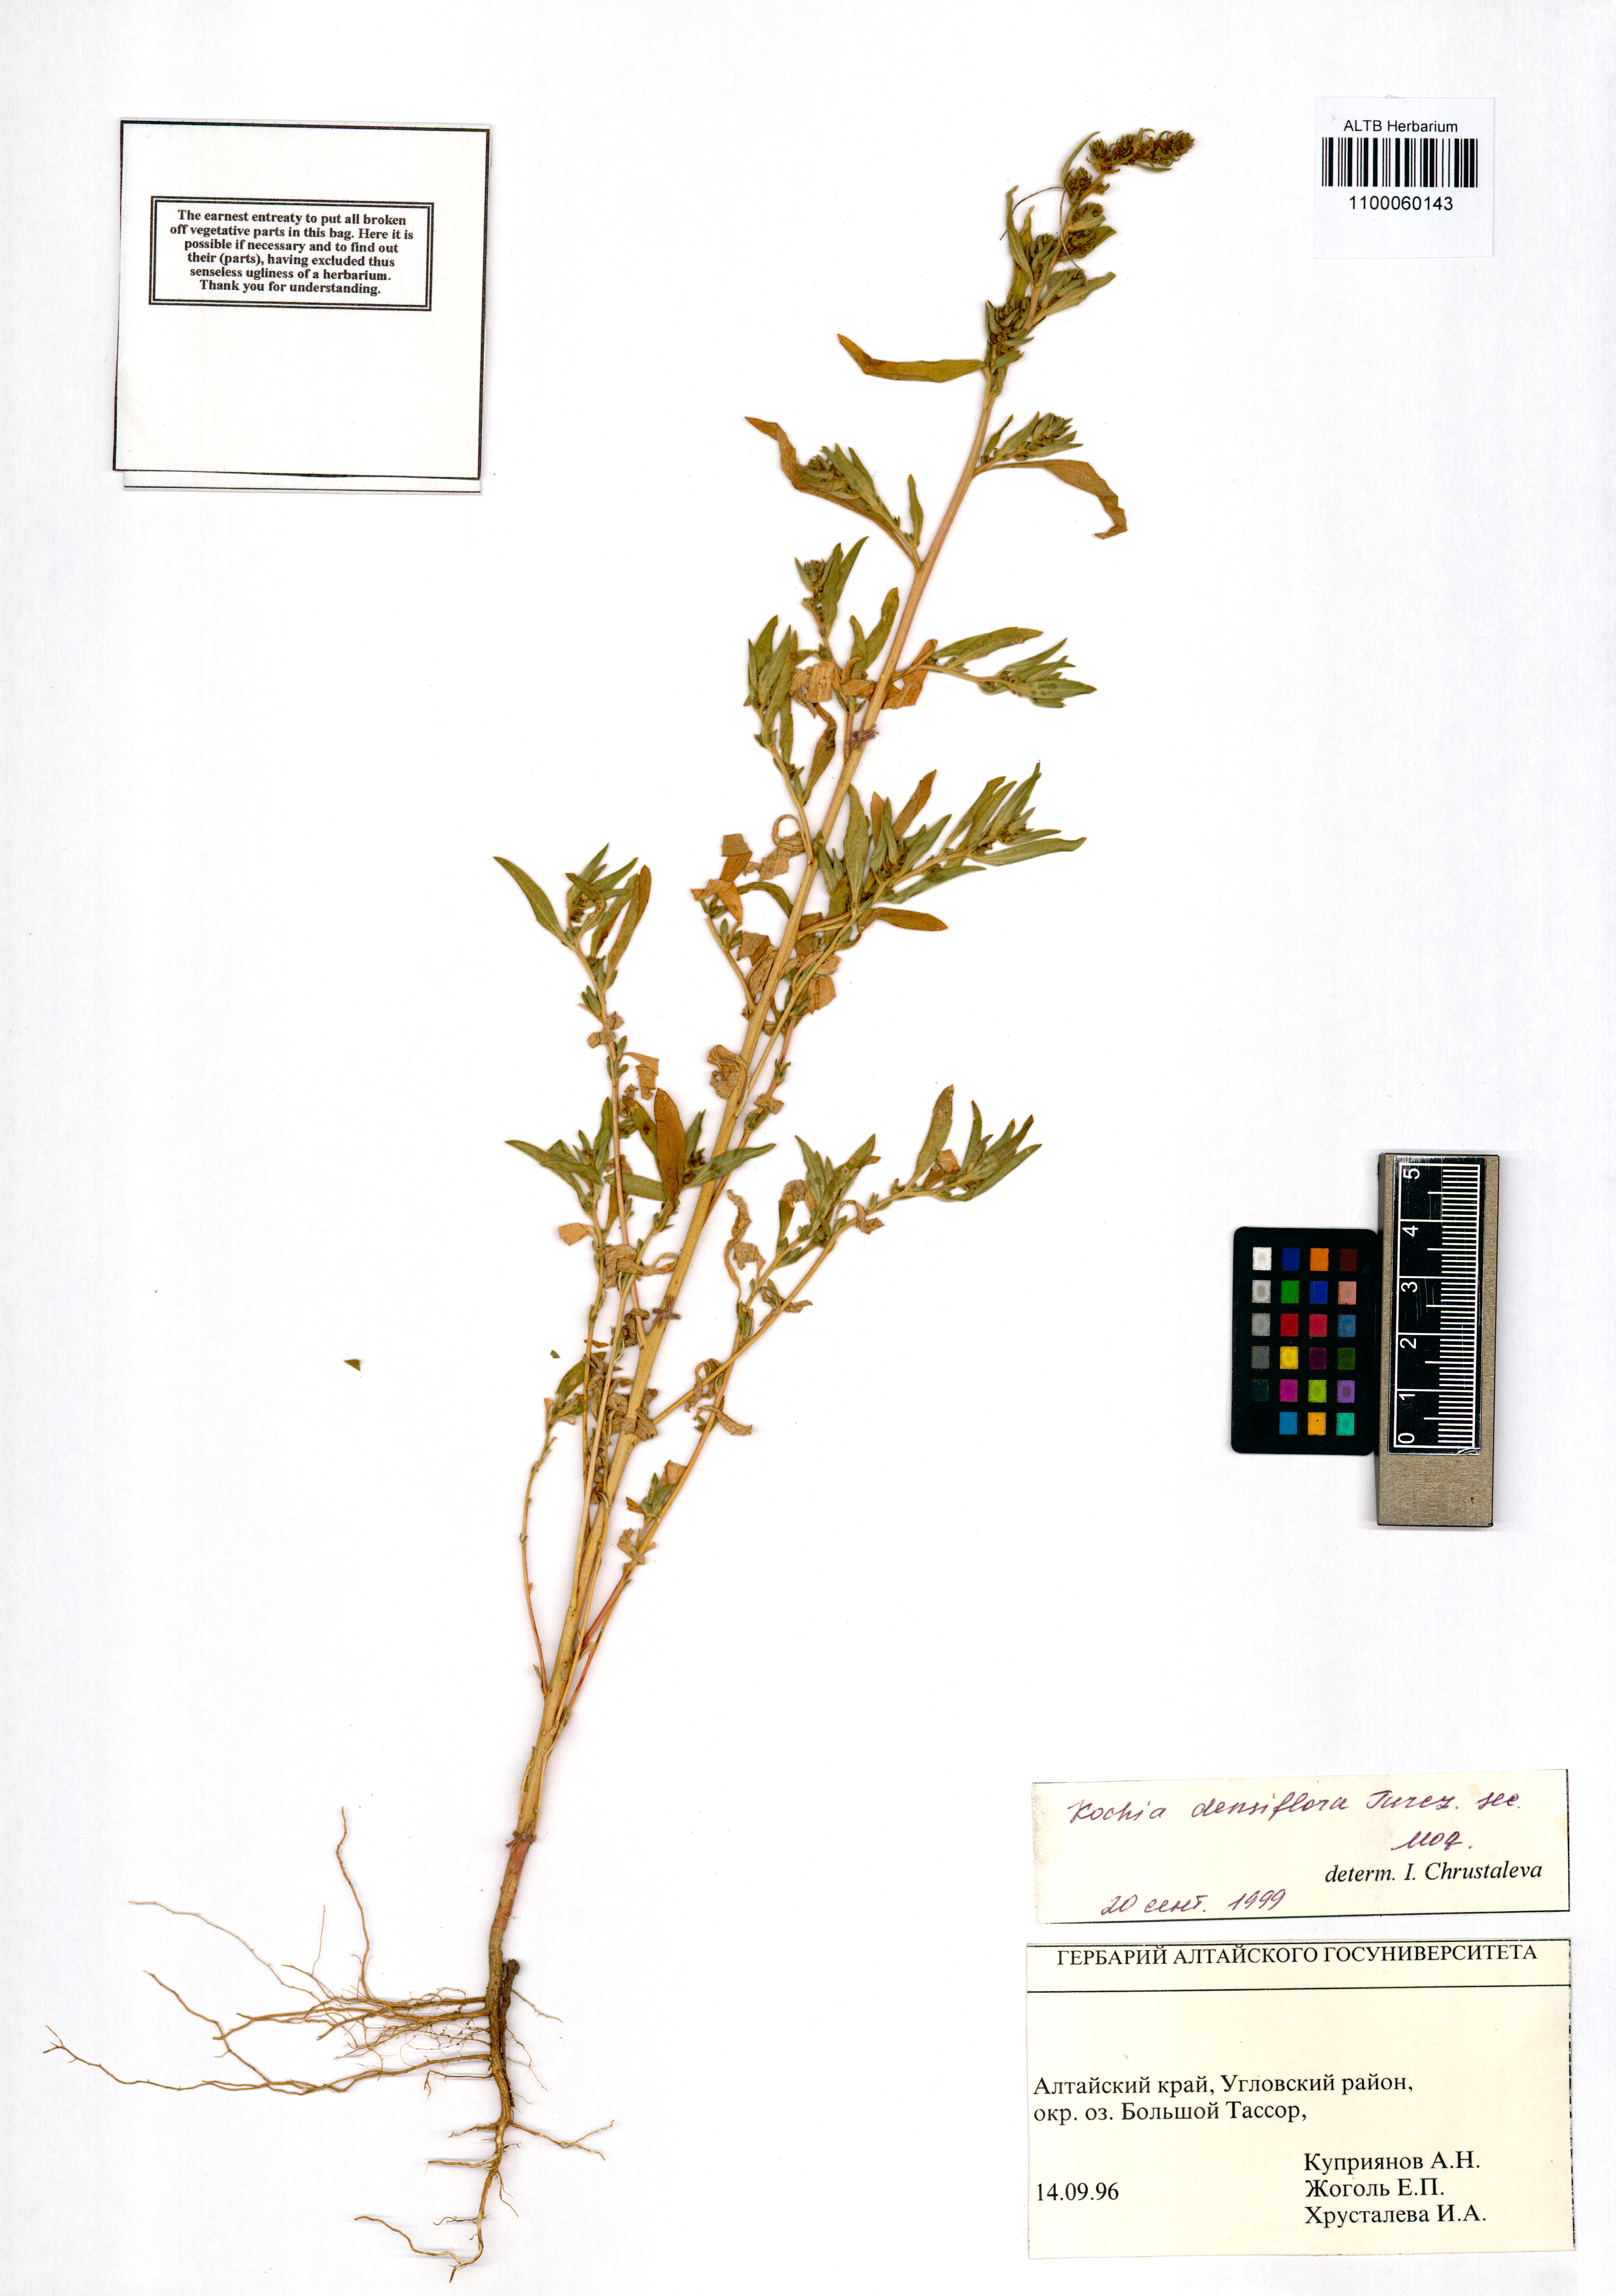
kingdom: Plantae
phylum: Tracheophyta
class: Magnoliopsida
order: Caryophyllales
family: Amaranthaceae
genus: Bassia
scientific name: Bassia scoparia
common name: Belvedere
